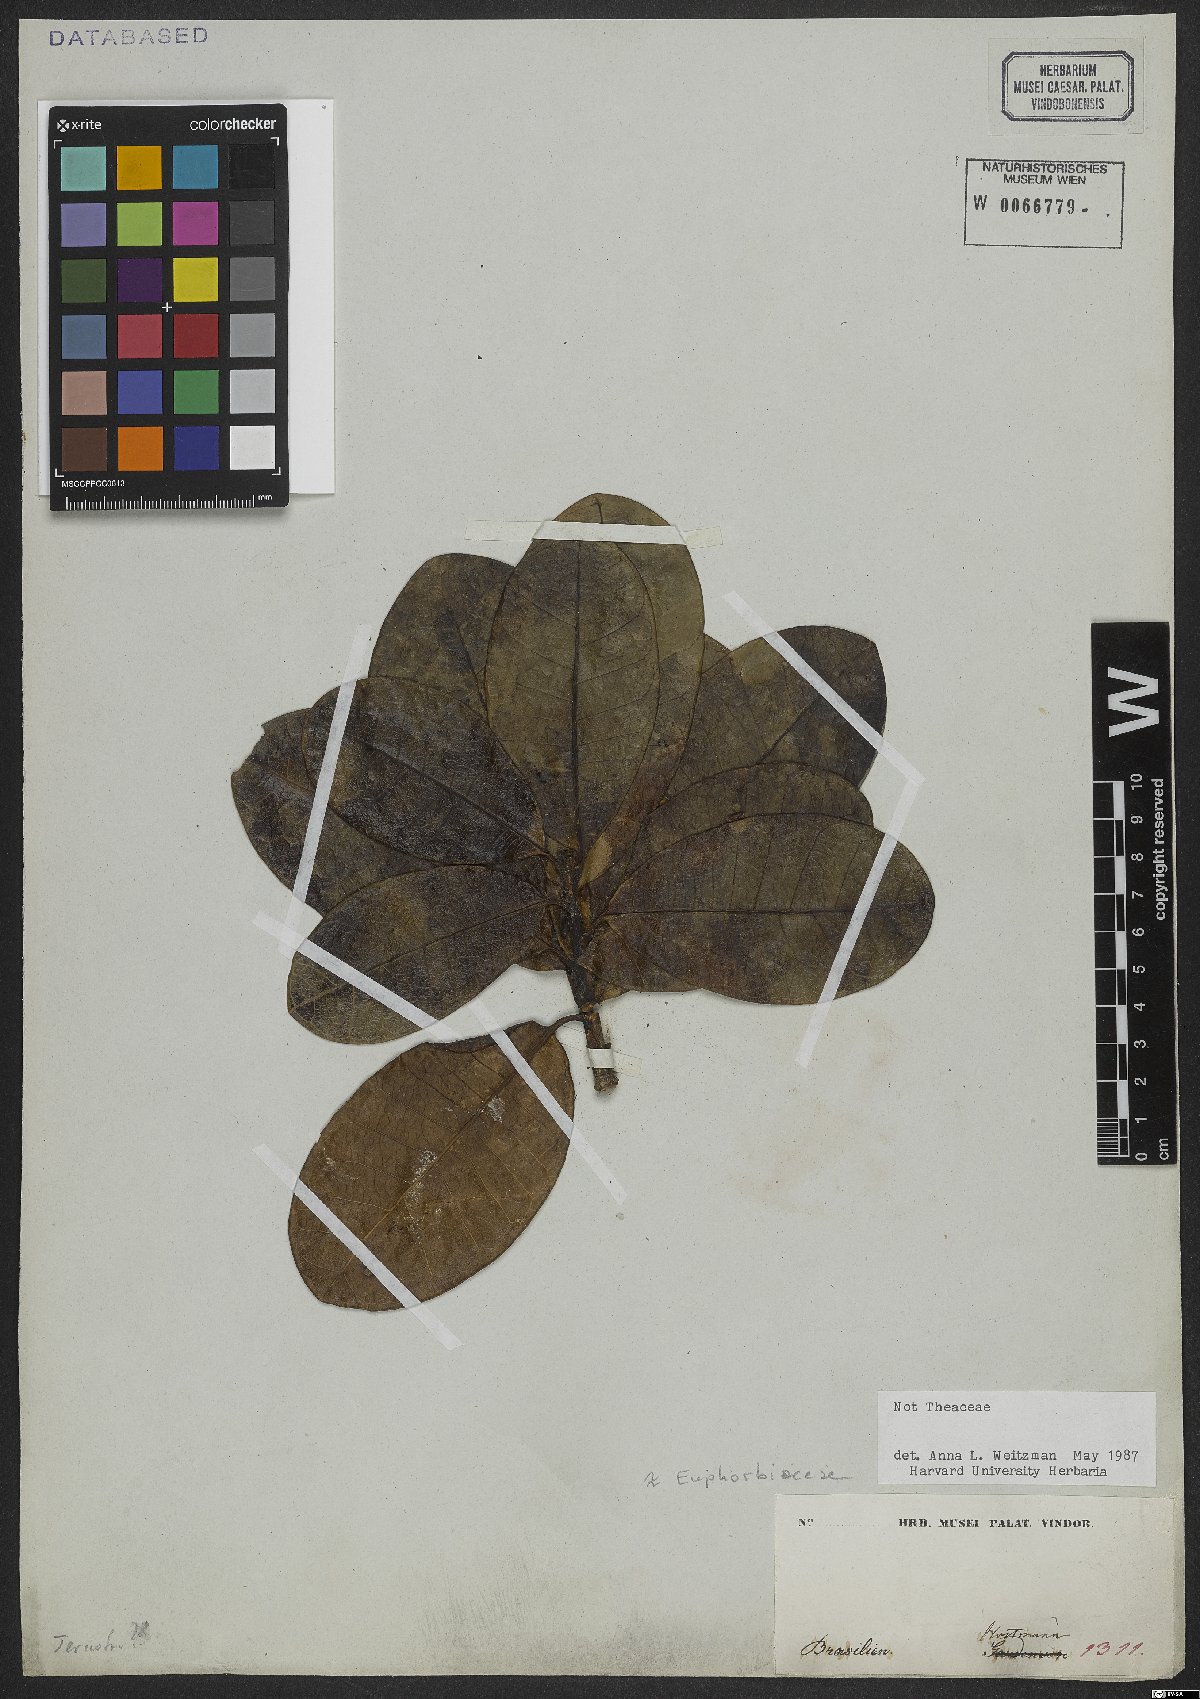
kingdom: Plantae
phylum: Tracheophyta
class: Magnoliopsida
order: Malpighiales
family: Euphorbiaceae
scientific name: Euphorbiaceae
